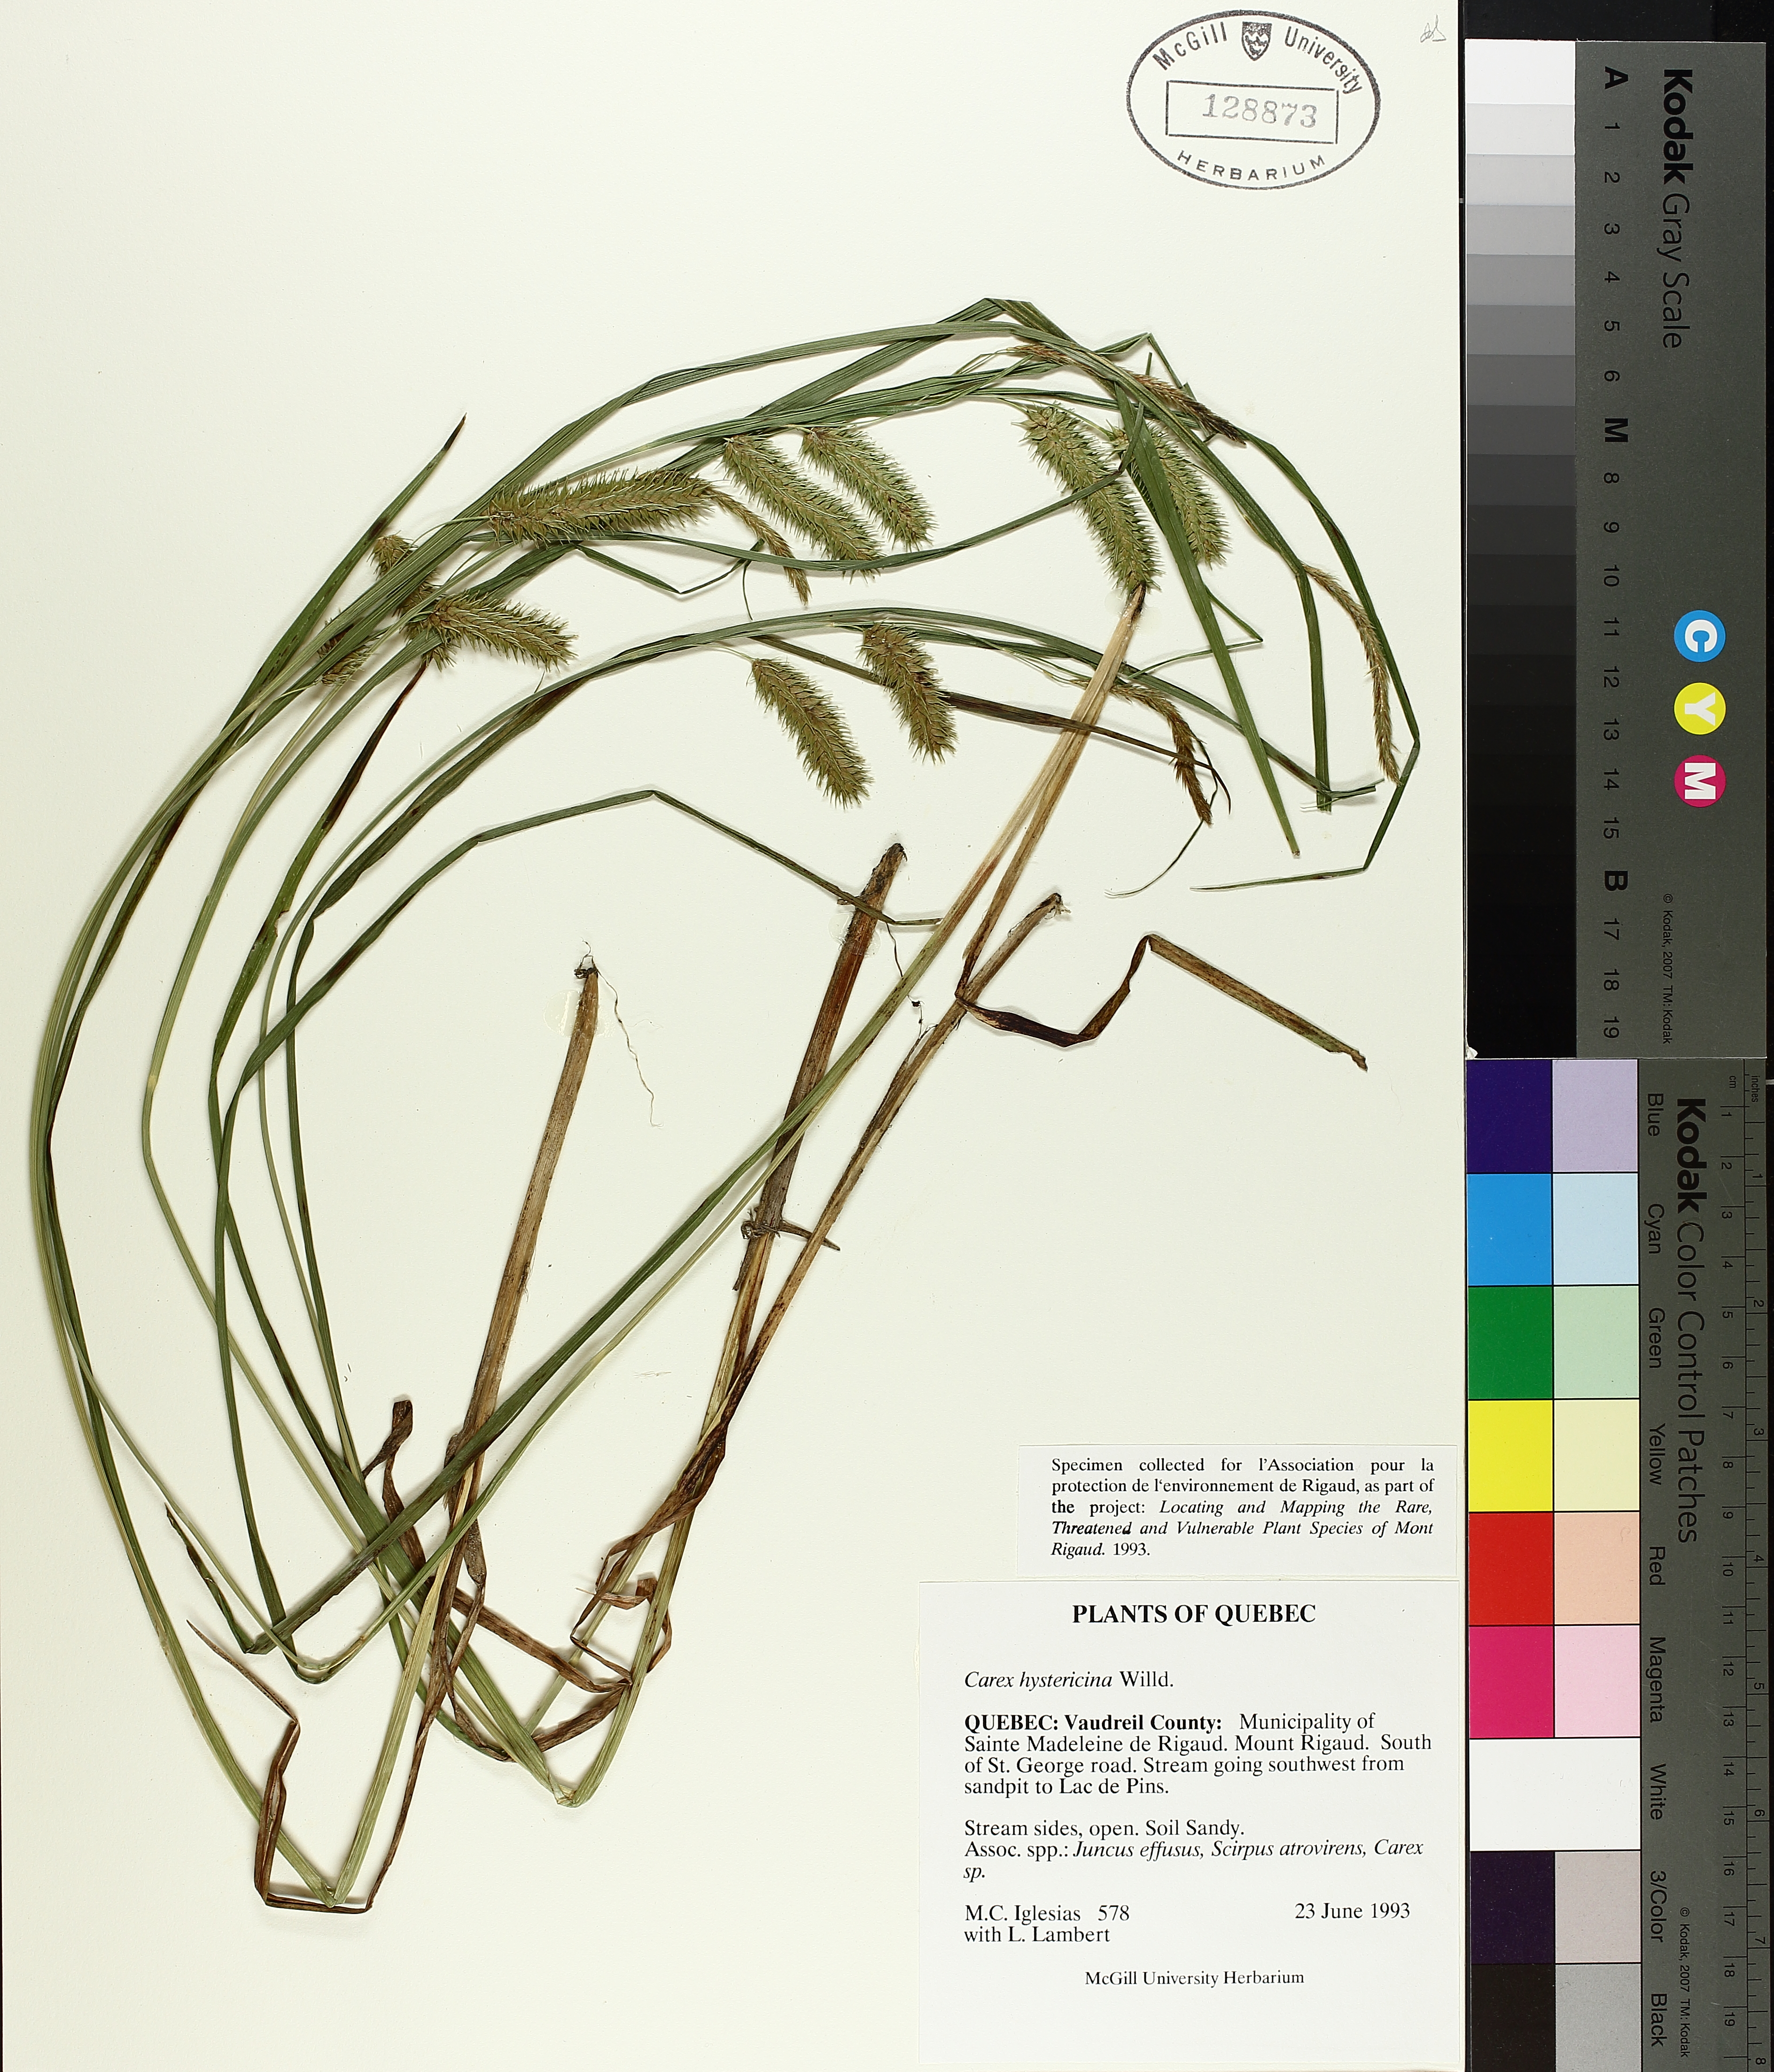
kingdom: Plantae
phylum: Tracheophyta
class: Liliopsida
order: Poales
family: Cyperaceae
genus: Carex
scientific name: Carex hystericina
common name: Bottlebrush sedge
